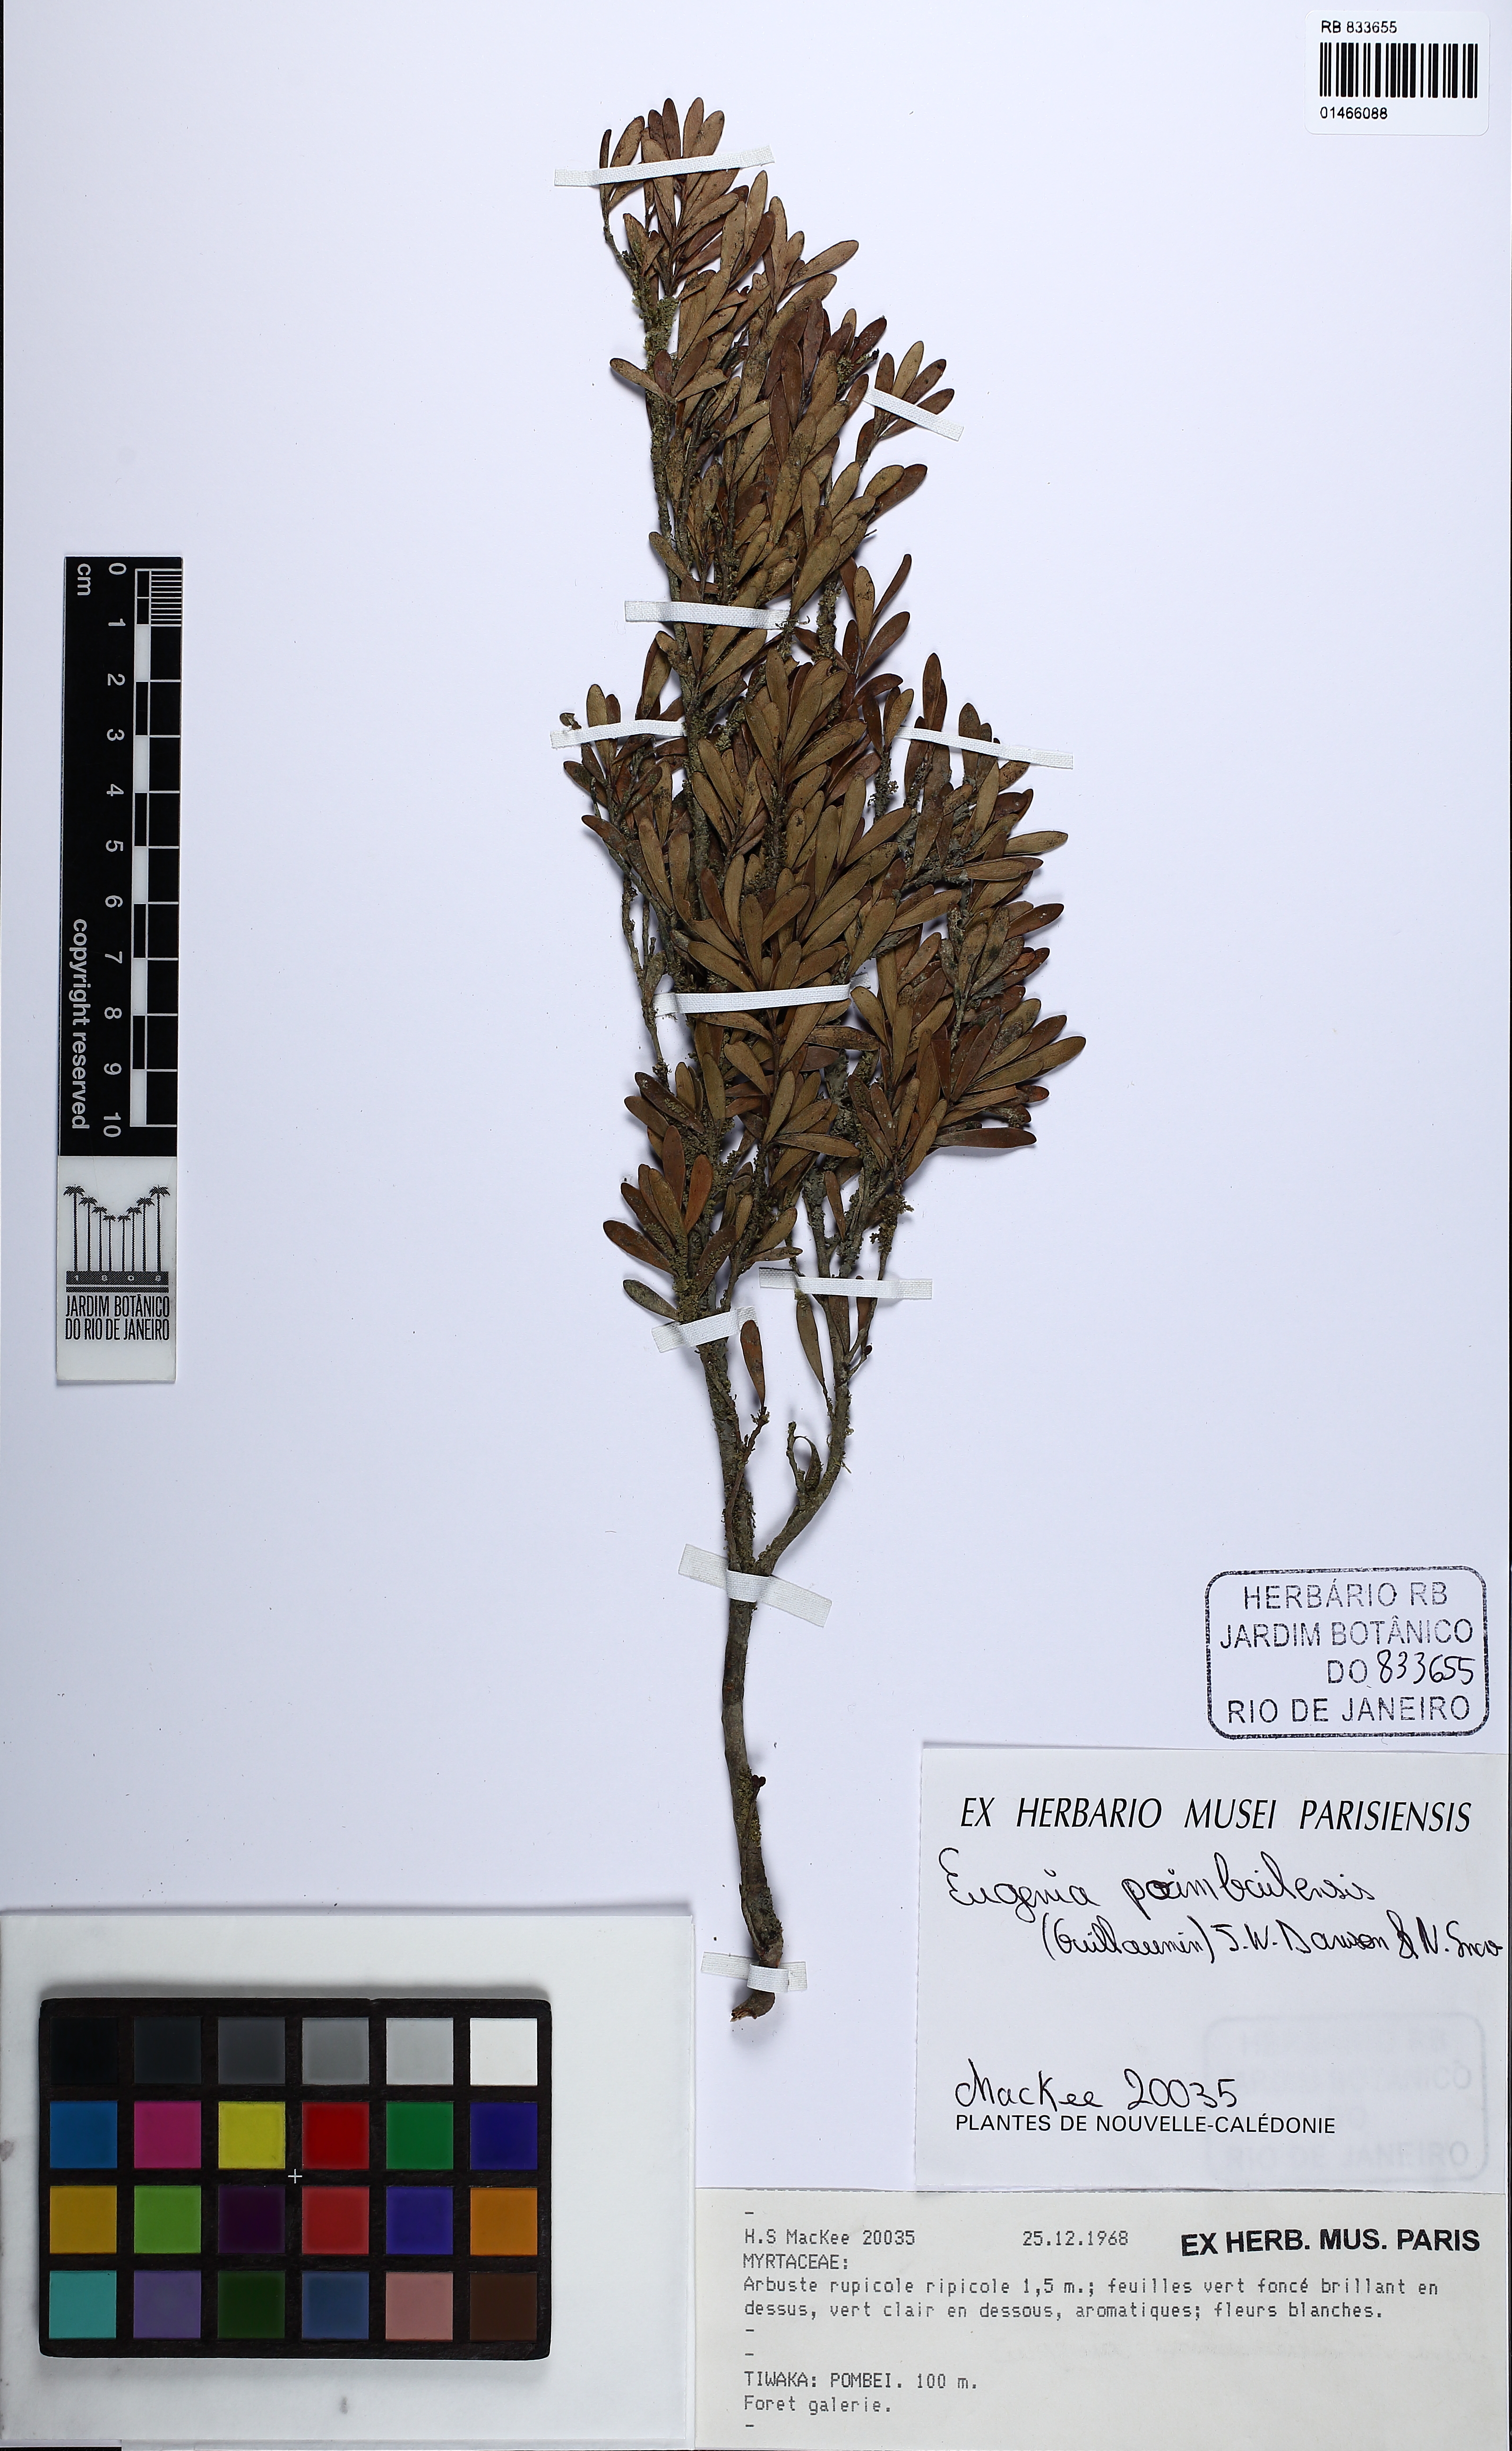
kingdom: Plantae
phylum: Tracheophyta
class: Magnoliopsida
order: Myrtales
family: Myrtaceae
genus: Eugenia
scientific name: Eugenia poimbailensis
